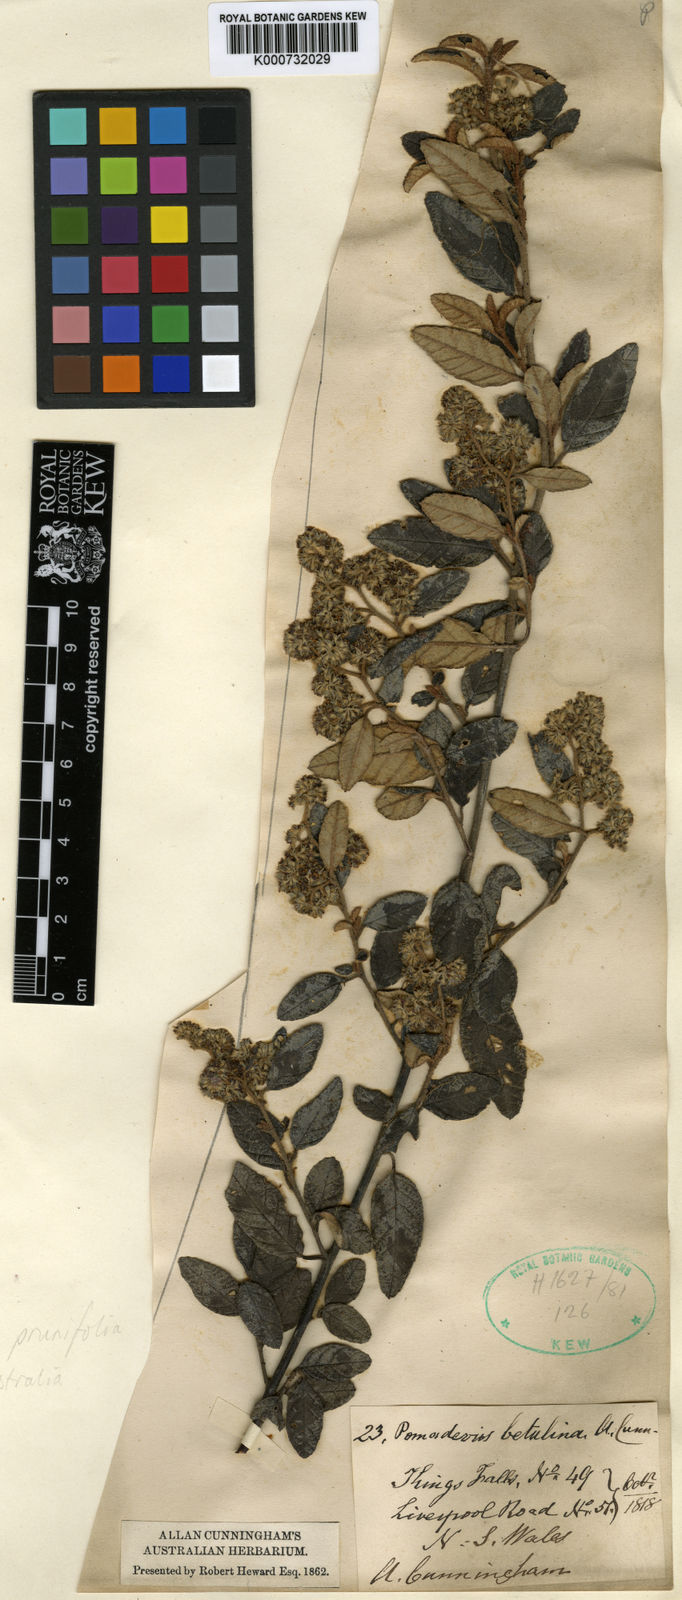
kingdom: Plantae
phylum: Tracheophyta
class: Magnoliopsida
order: Rosales
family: Rhamnaceae
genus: Pomaderris
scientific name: Pomaderris prunifolia
